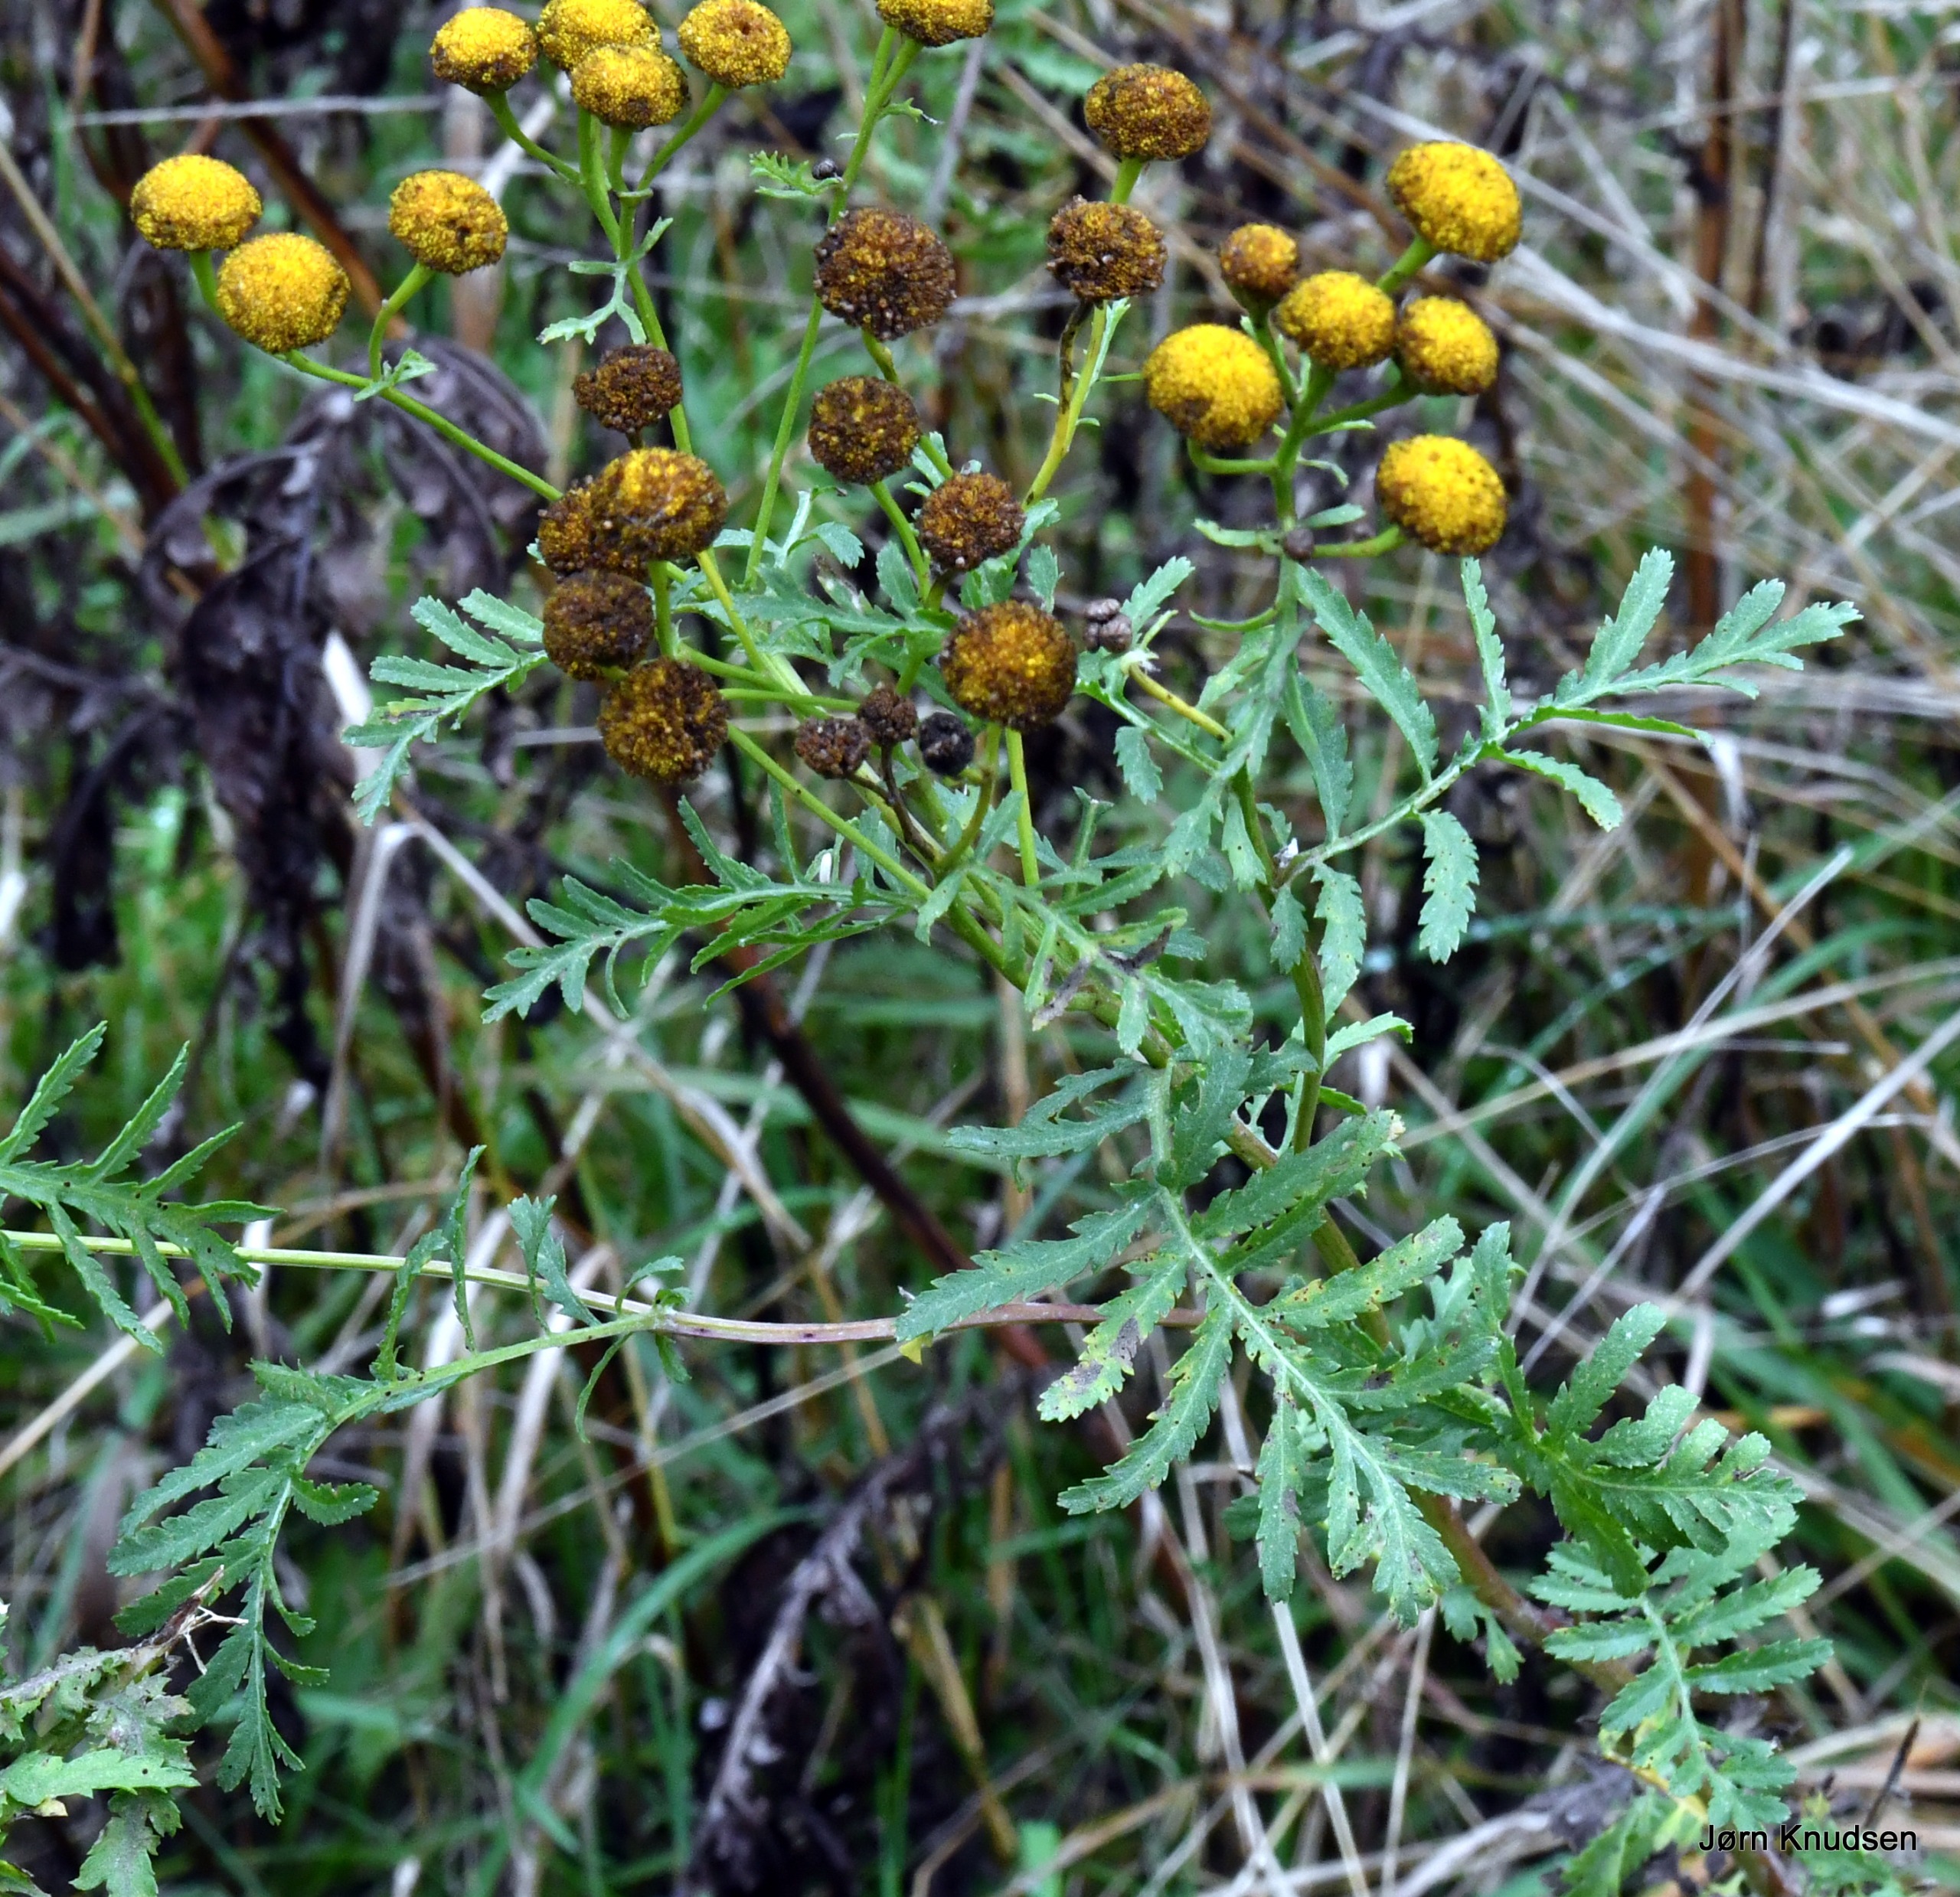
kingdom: Plantae
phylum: Tracheophyta
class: Magnoliopsida
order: Asterales
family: Asteraceae
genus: Tanacetum
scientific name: Tanacetum vulgare
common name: Rejnfan
